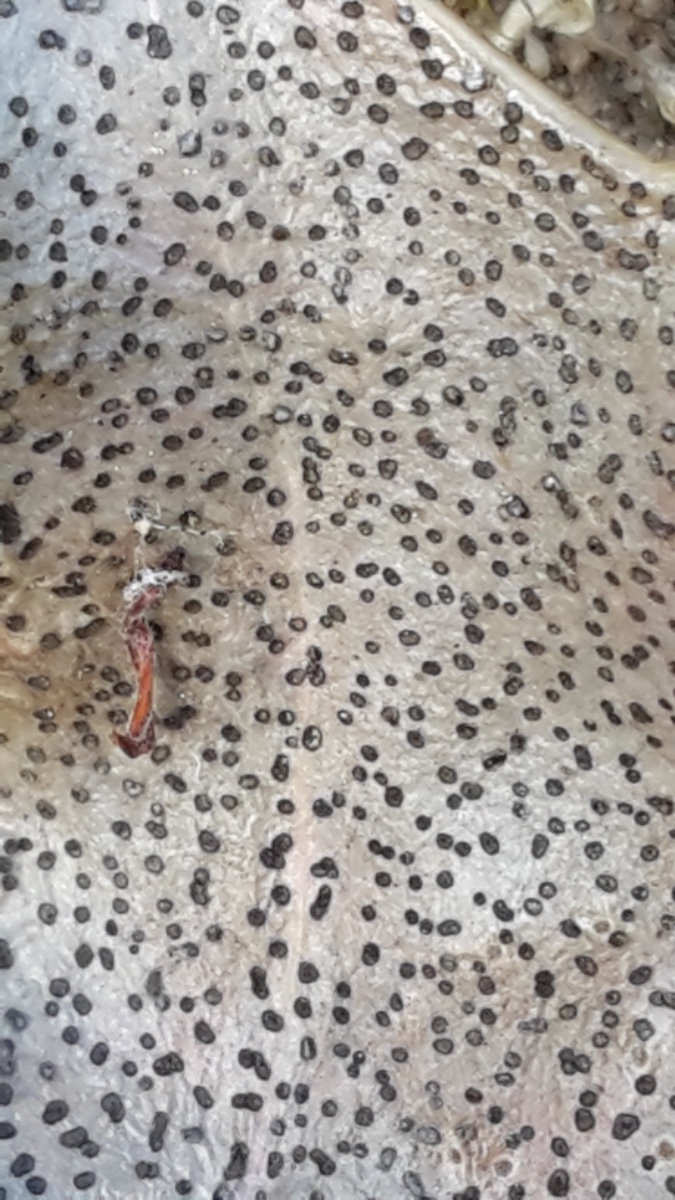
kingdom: Fungi
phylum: Ascomycota
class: Leotiomycetes
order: Helotiales
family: Cenangiaceae
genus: Trochila
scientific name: Trochila ilicina
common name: kristtorn-lågskive
